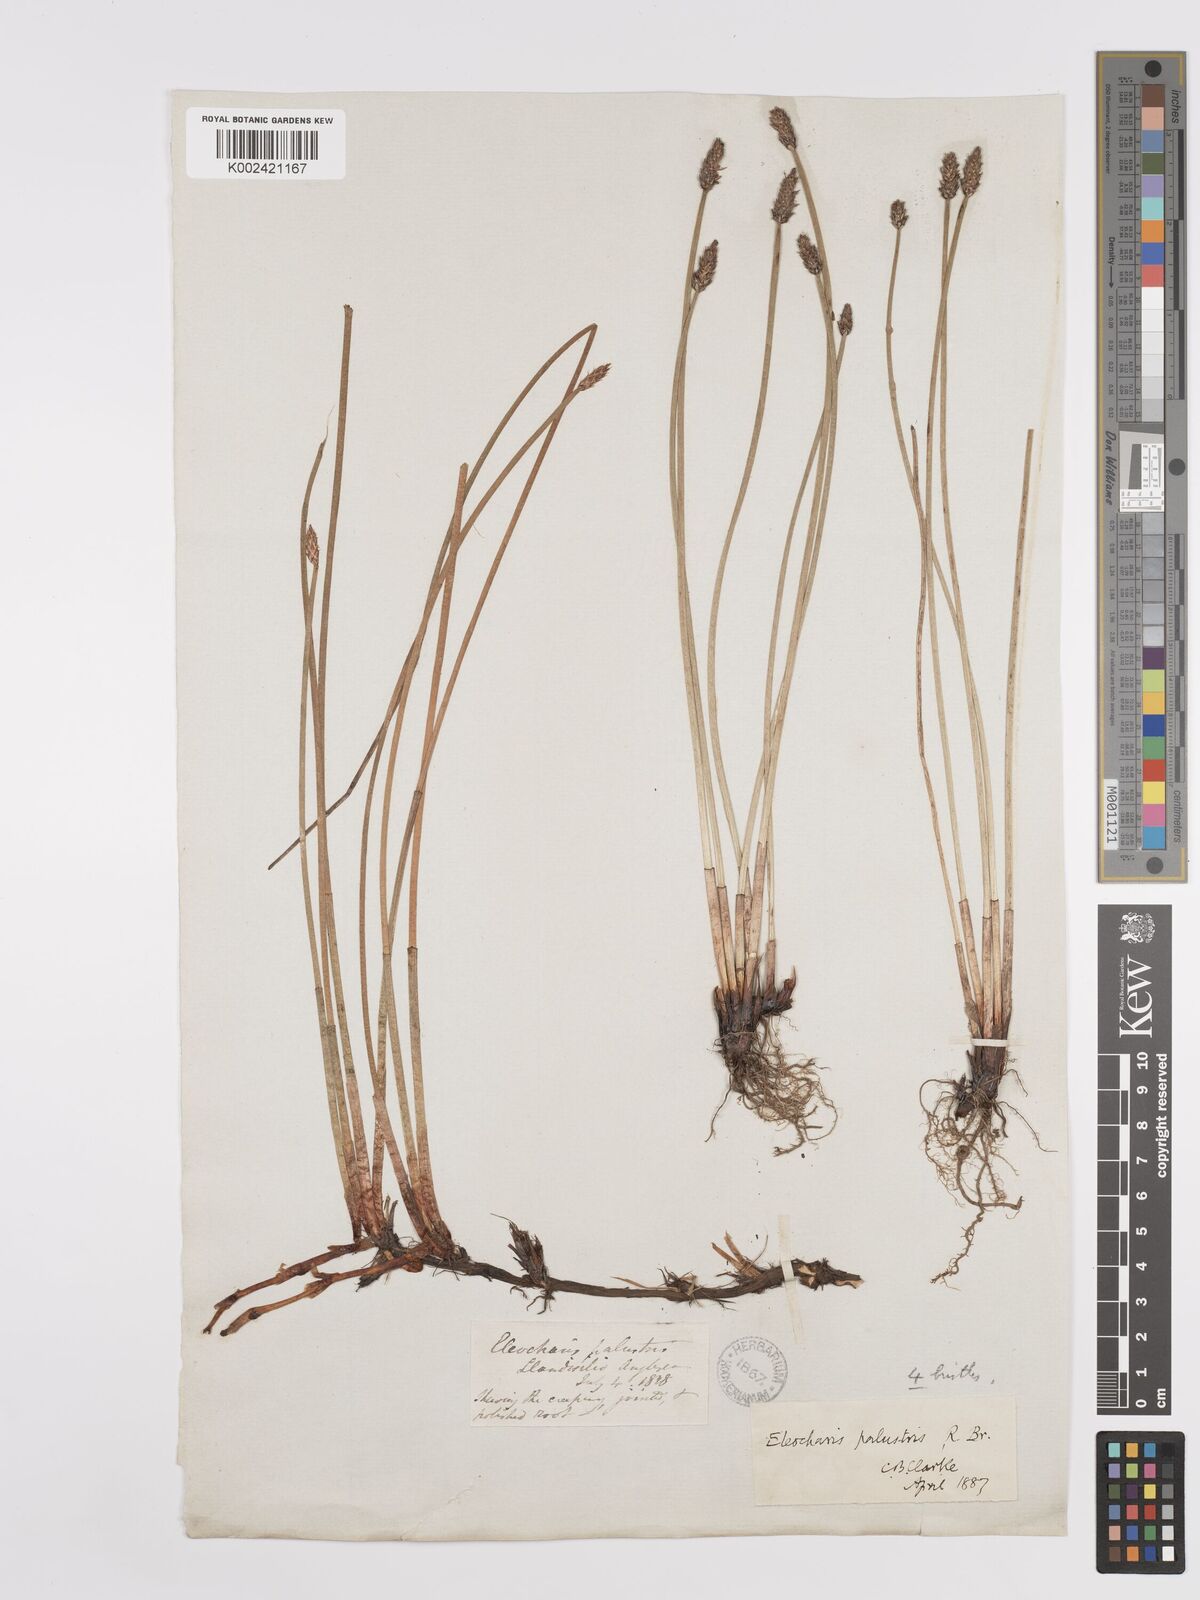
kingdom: Plantae
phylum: Tracheophyta
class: Liliopsida
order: Poales
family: Cyperaceae
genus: Eleocharis
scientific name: Eleocharis palustris
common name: Common spike-rush
